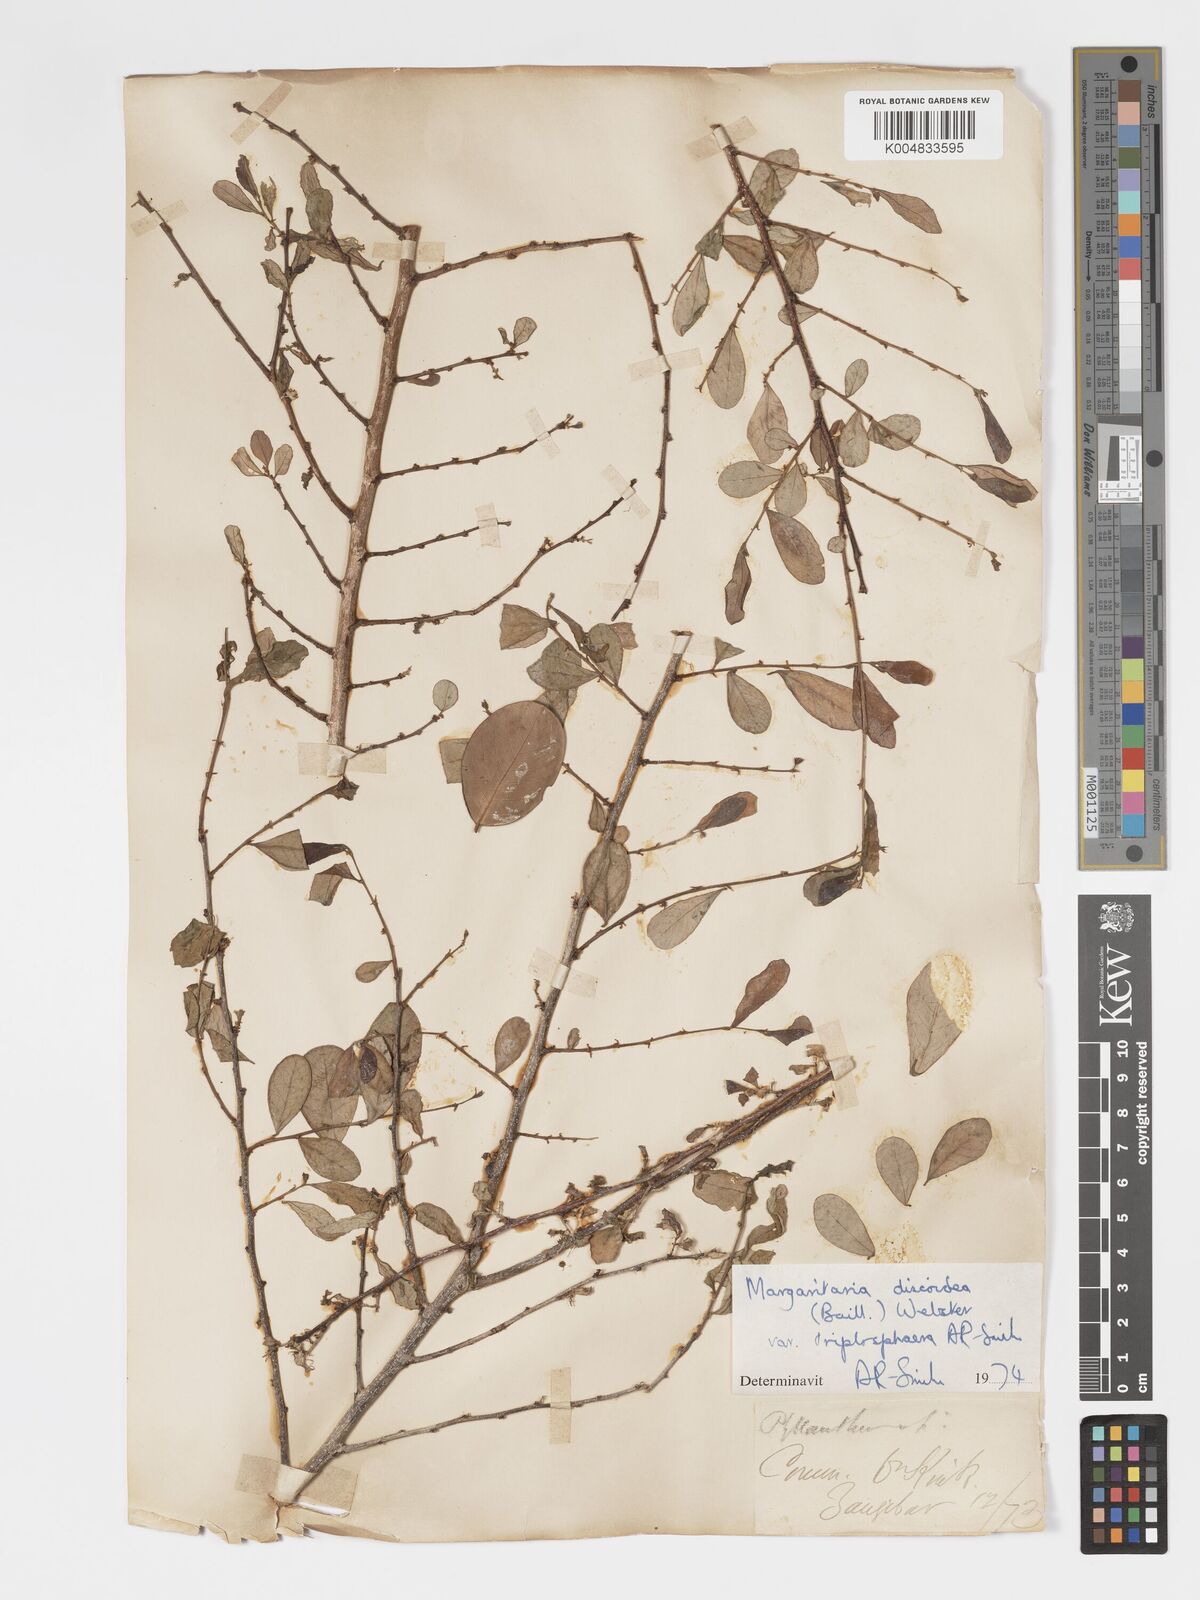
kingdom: Plantae
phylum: Tracheophyta
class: Magnoliopsida
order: Malpighiales
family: Phyllanthaceae
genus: Margaritaria
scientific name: Margaritaria discoidea
